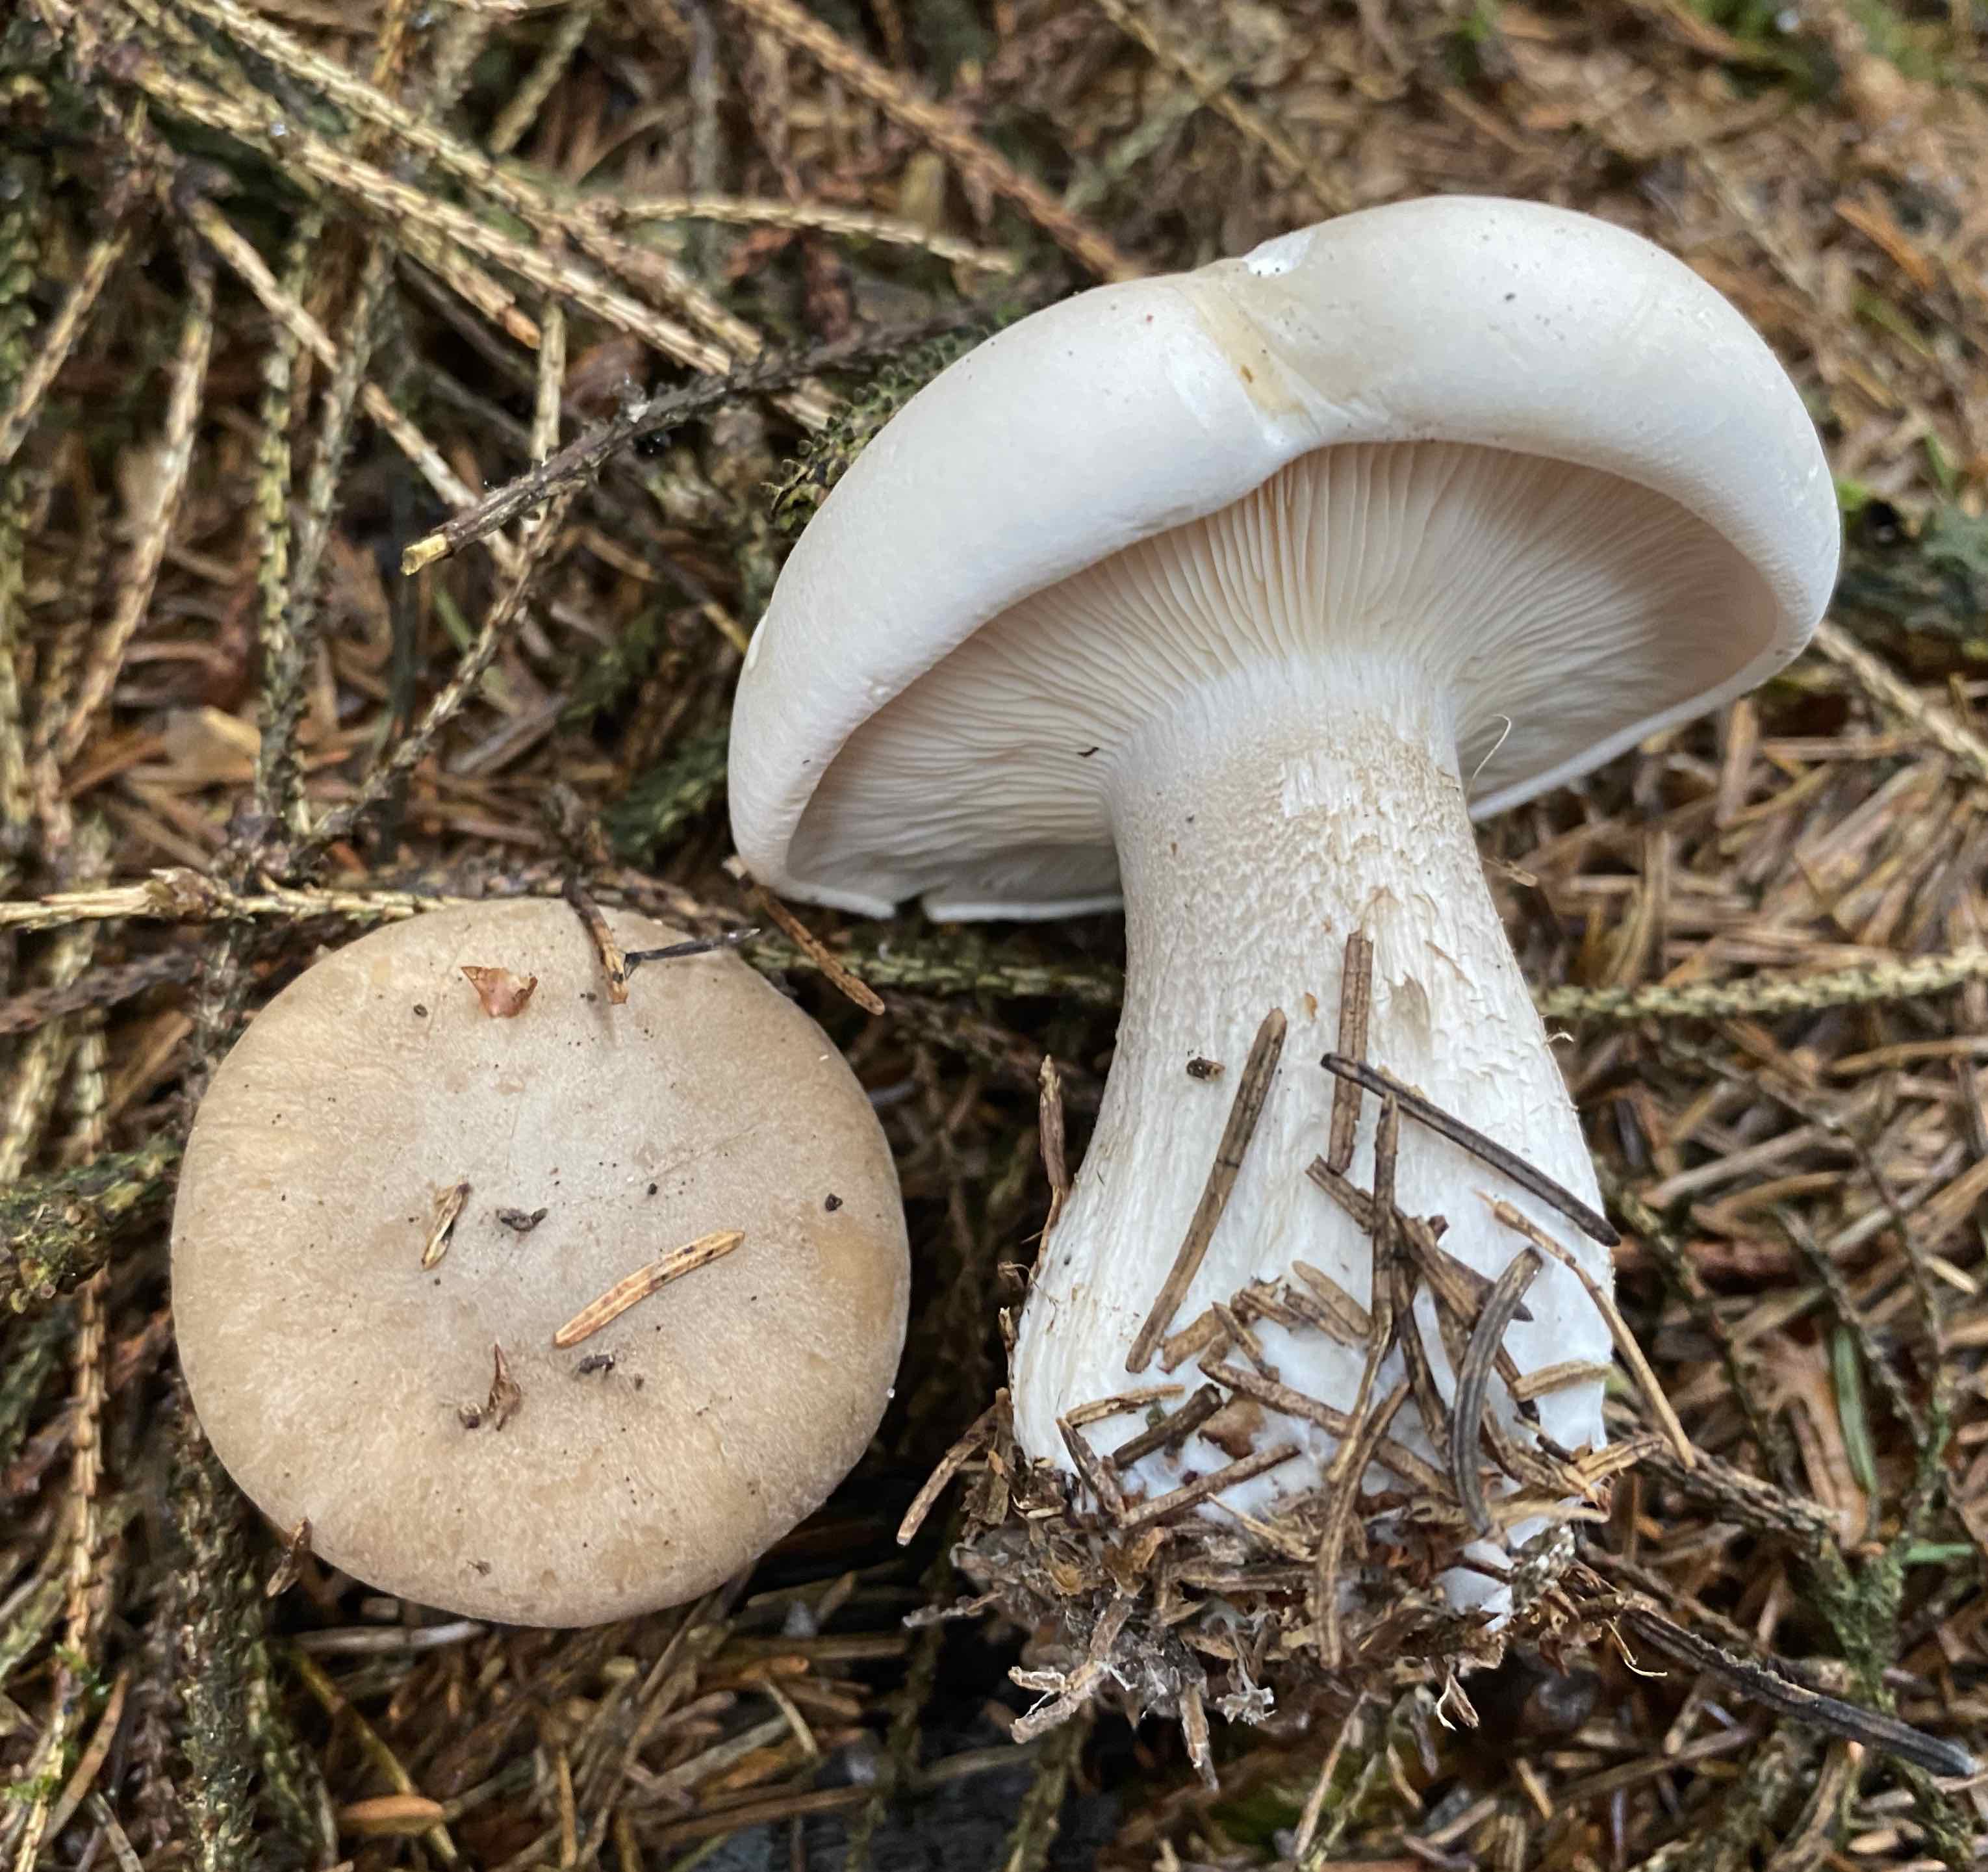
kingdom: Fungi
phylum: Basidiomycota
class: Agaricomycetes
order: Agaricales
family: Tricholomataceae
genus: Clitocybe
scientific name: Clitocybe nebularis
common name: tåge-tragthat
